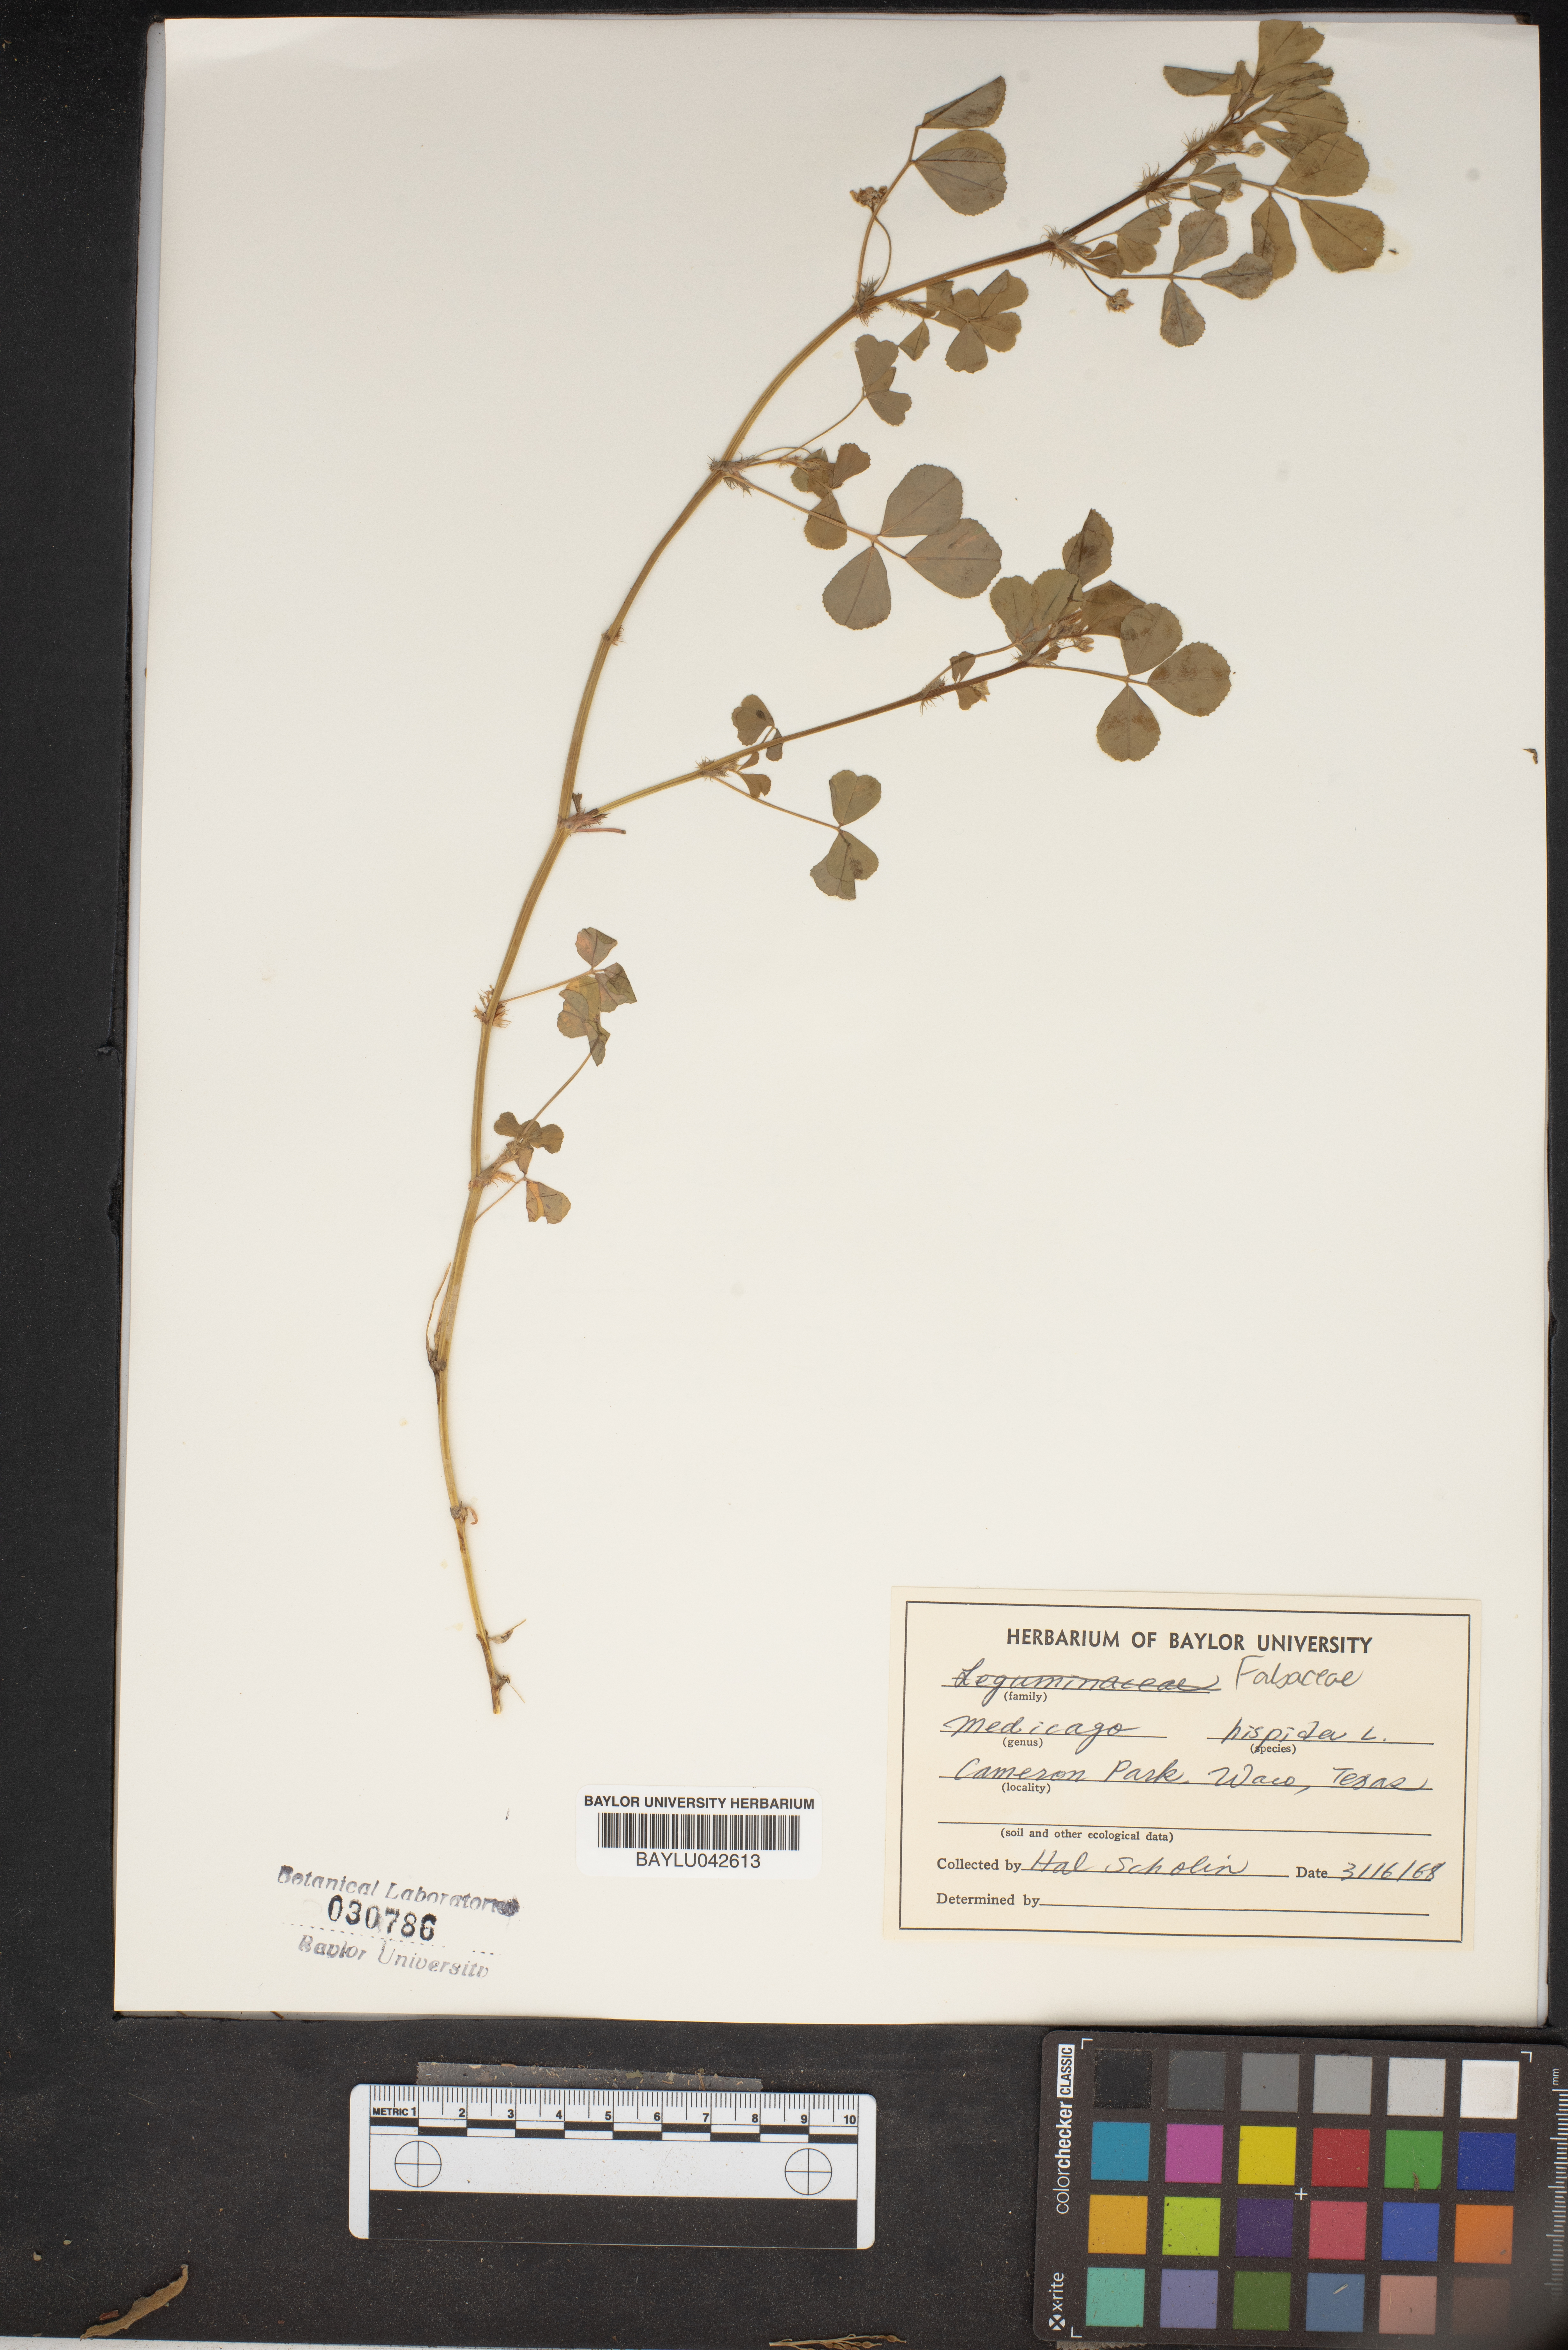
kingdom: Plantae
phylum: Tracheophyta
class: Magnoliopsida
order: Fabales
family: Fabaceae
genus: Medicago
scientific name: Medicago polymorpha
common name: Burclover
